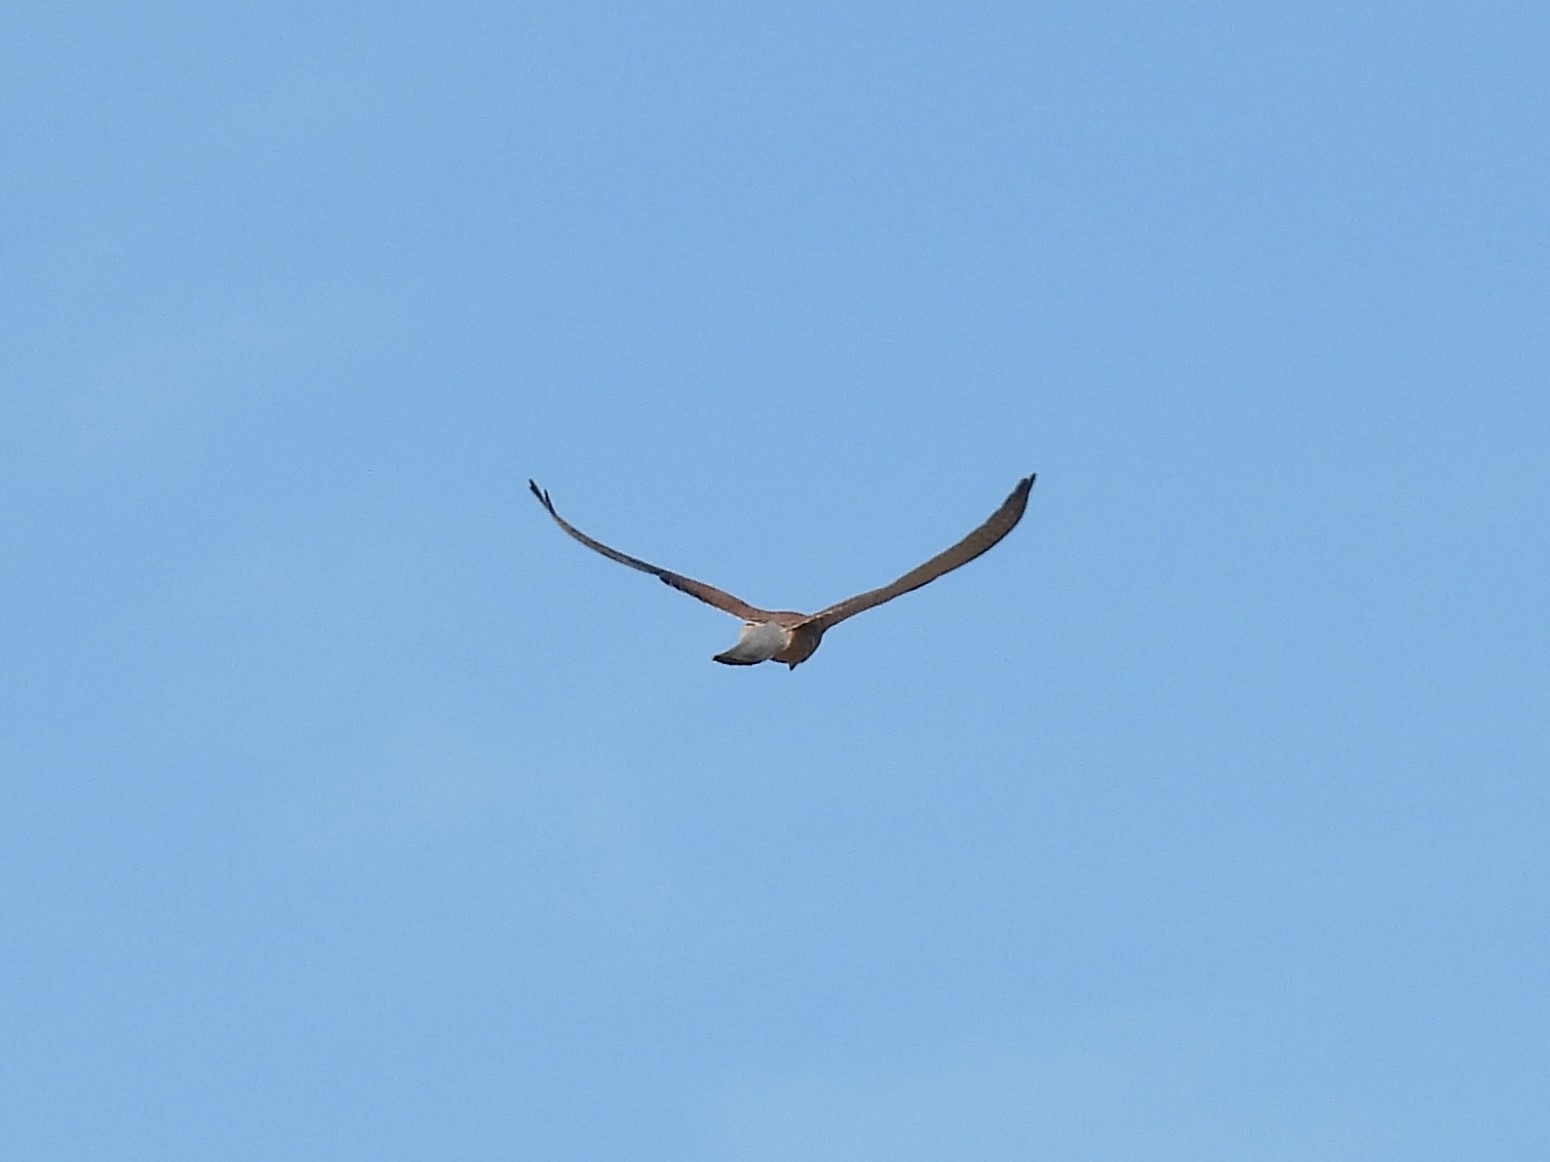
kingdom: Animalia
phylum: Chordata
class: Aves
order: Falconiformes
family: Falconidae
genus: Falco
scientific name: Falco tinnunculus
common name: Tårnfalk
